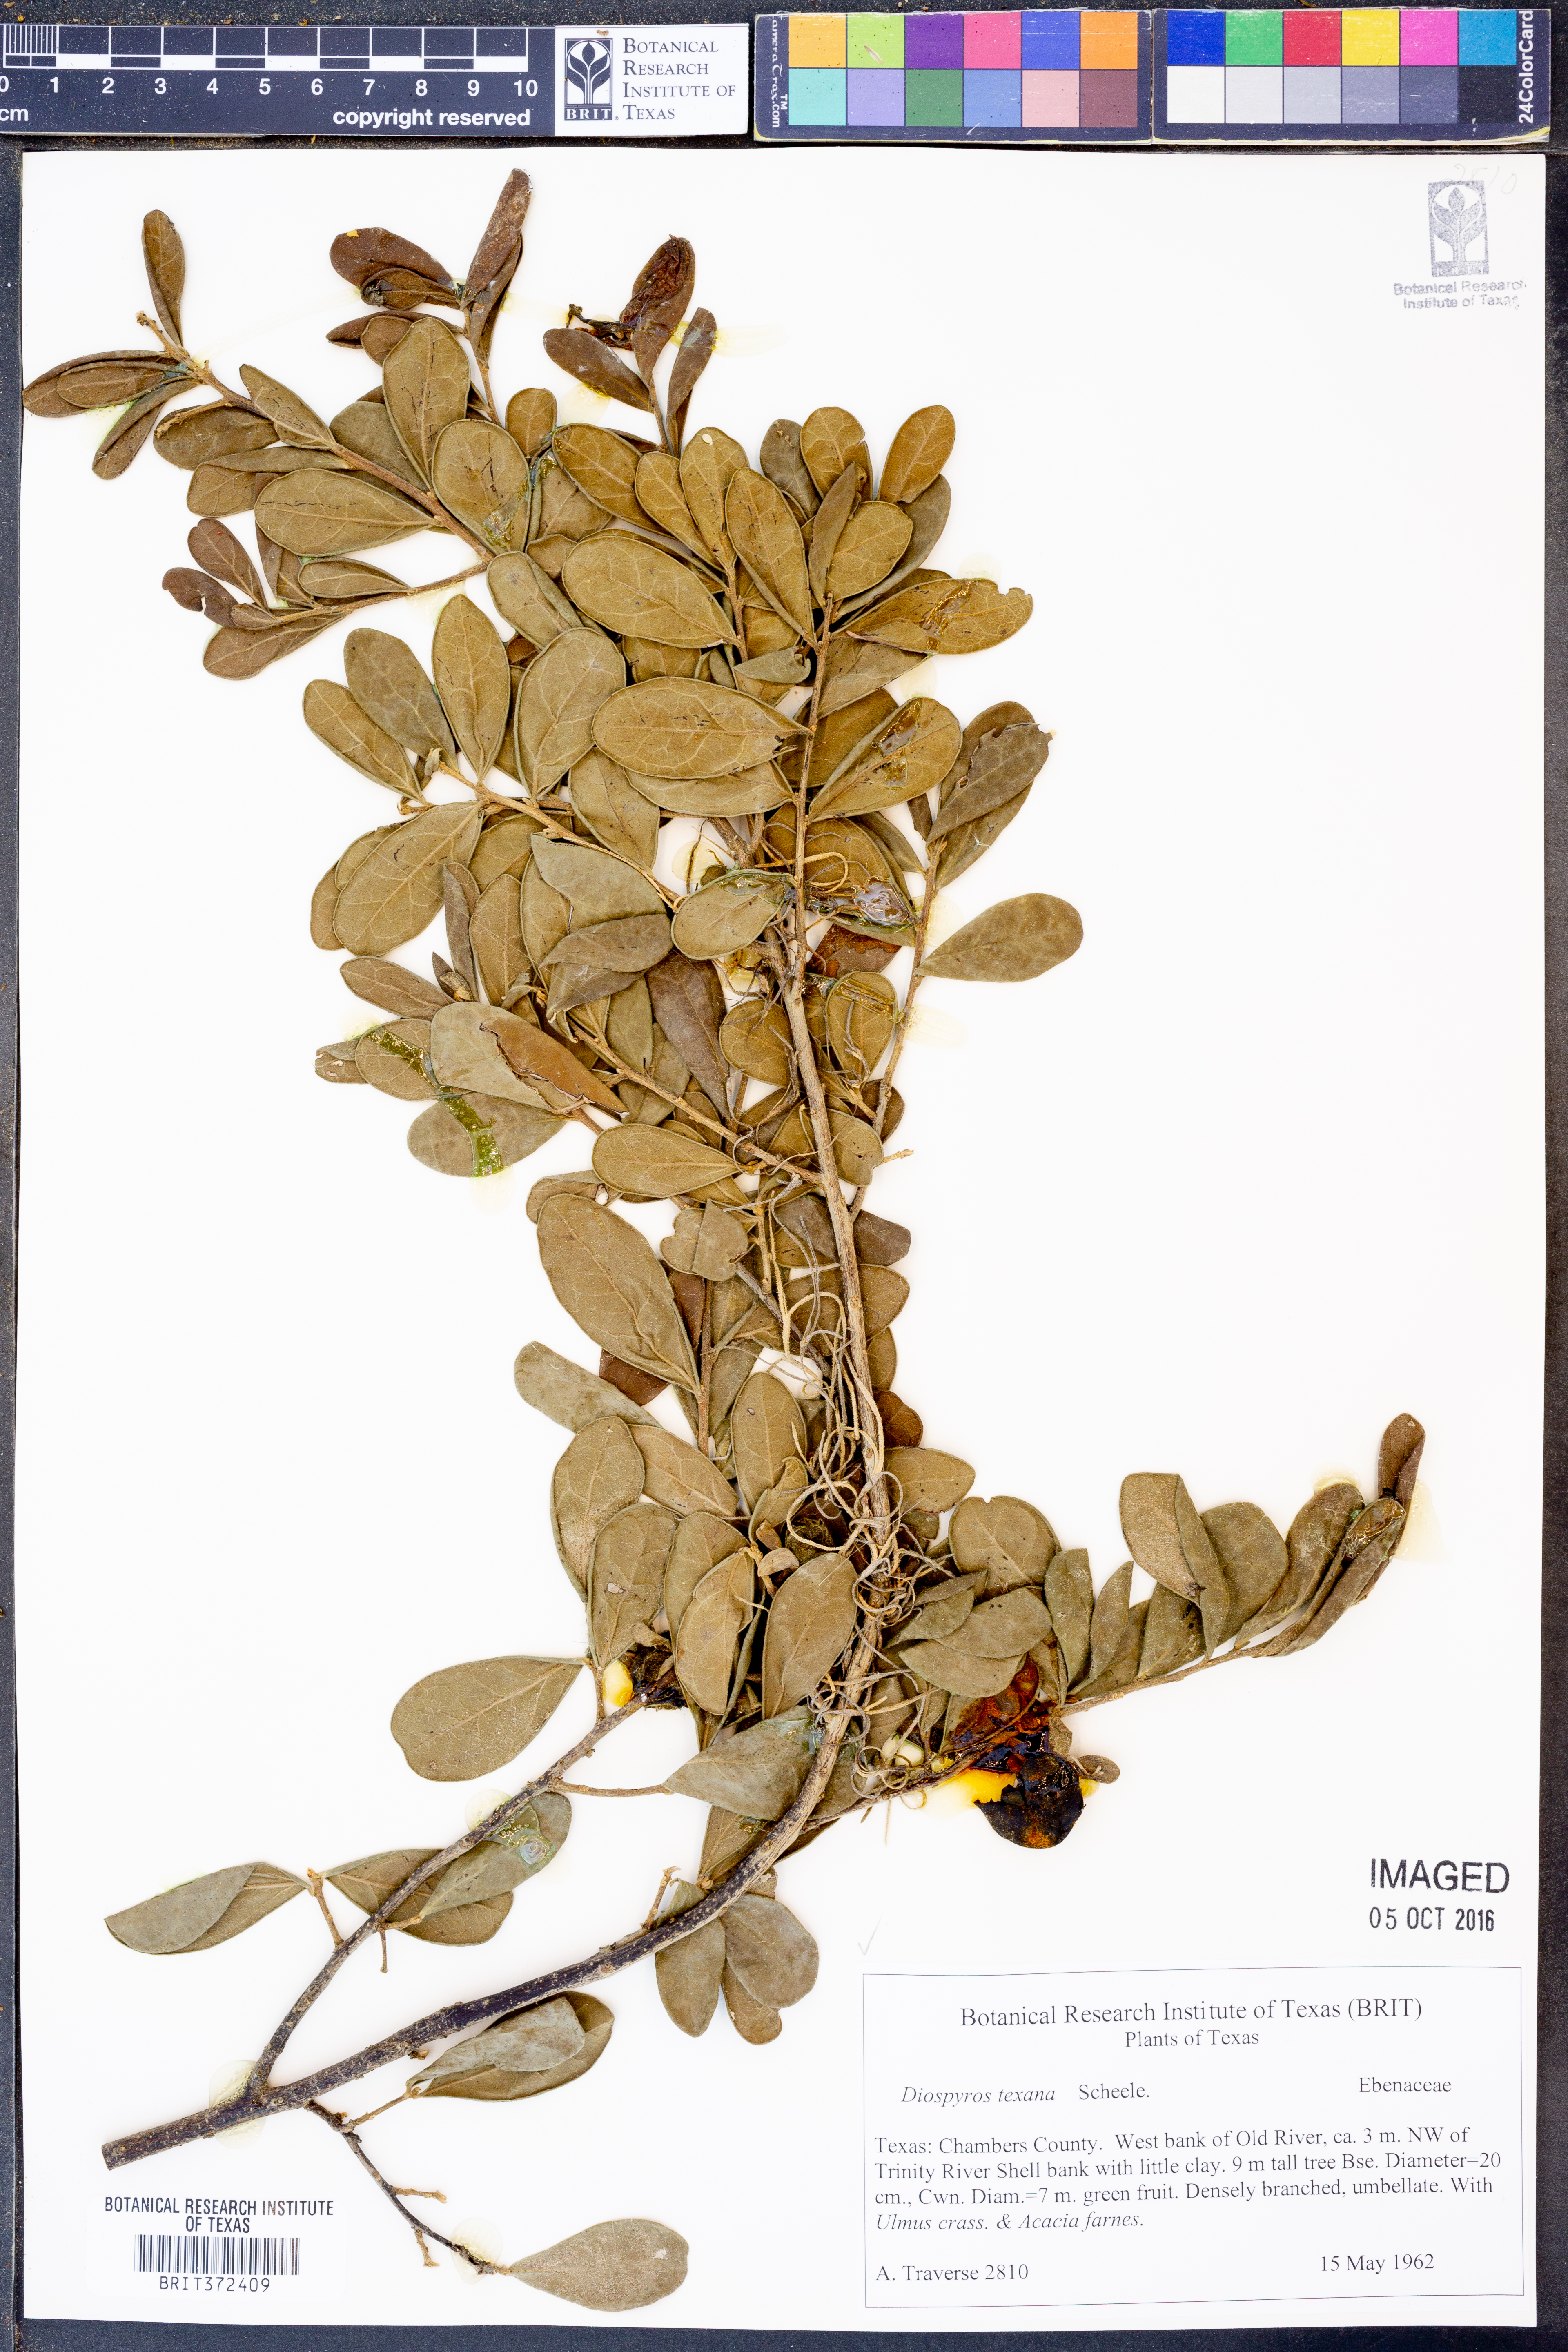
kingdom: Plantae
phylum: Tracheophyta
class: Magnoliopsida
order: Brassicales
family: Brassicaceae
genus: Physaria
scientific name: Physaria fendleri
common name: Fendler's bladderpod
